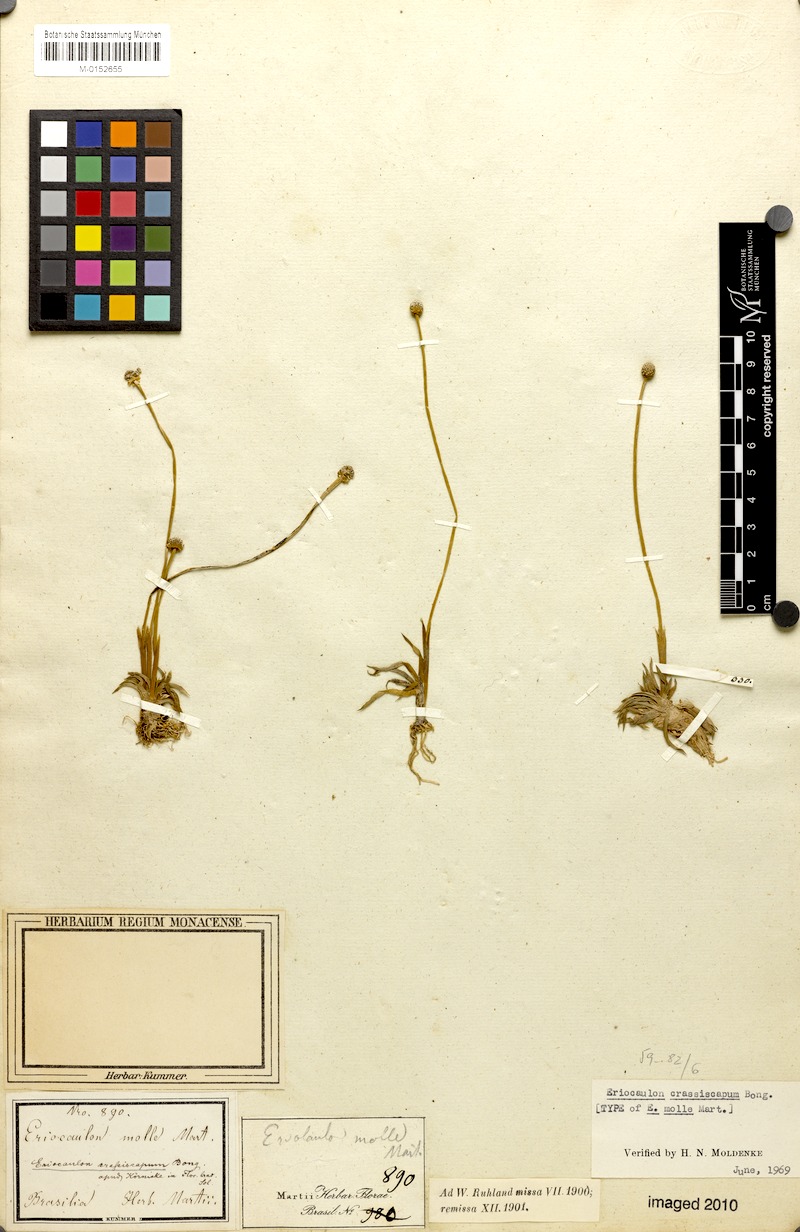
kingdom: Plantae
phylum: Tracheophyta
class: Liliopsida
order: Poales
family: Eriocaulaceae
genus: Leiothrix
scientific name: Leiothrix crassifolia
